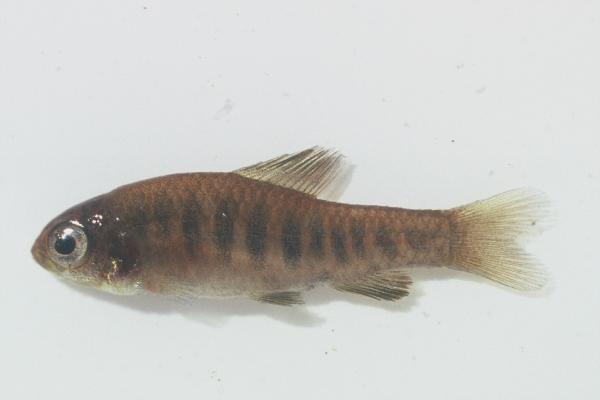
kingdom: Animalia
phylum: Chordata
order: Characiformes
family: Distichodontidae
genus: Neolebias
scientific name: Neolebias lozii
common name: Banded neolebias
